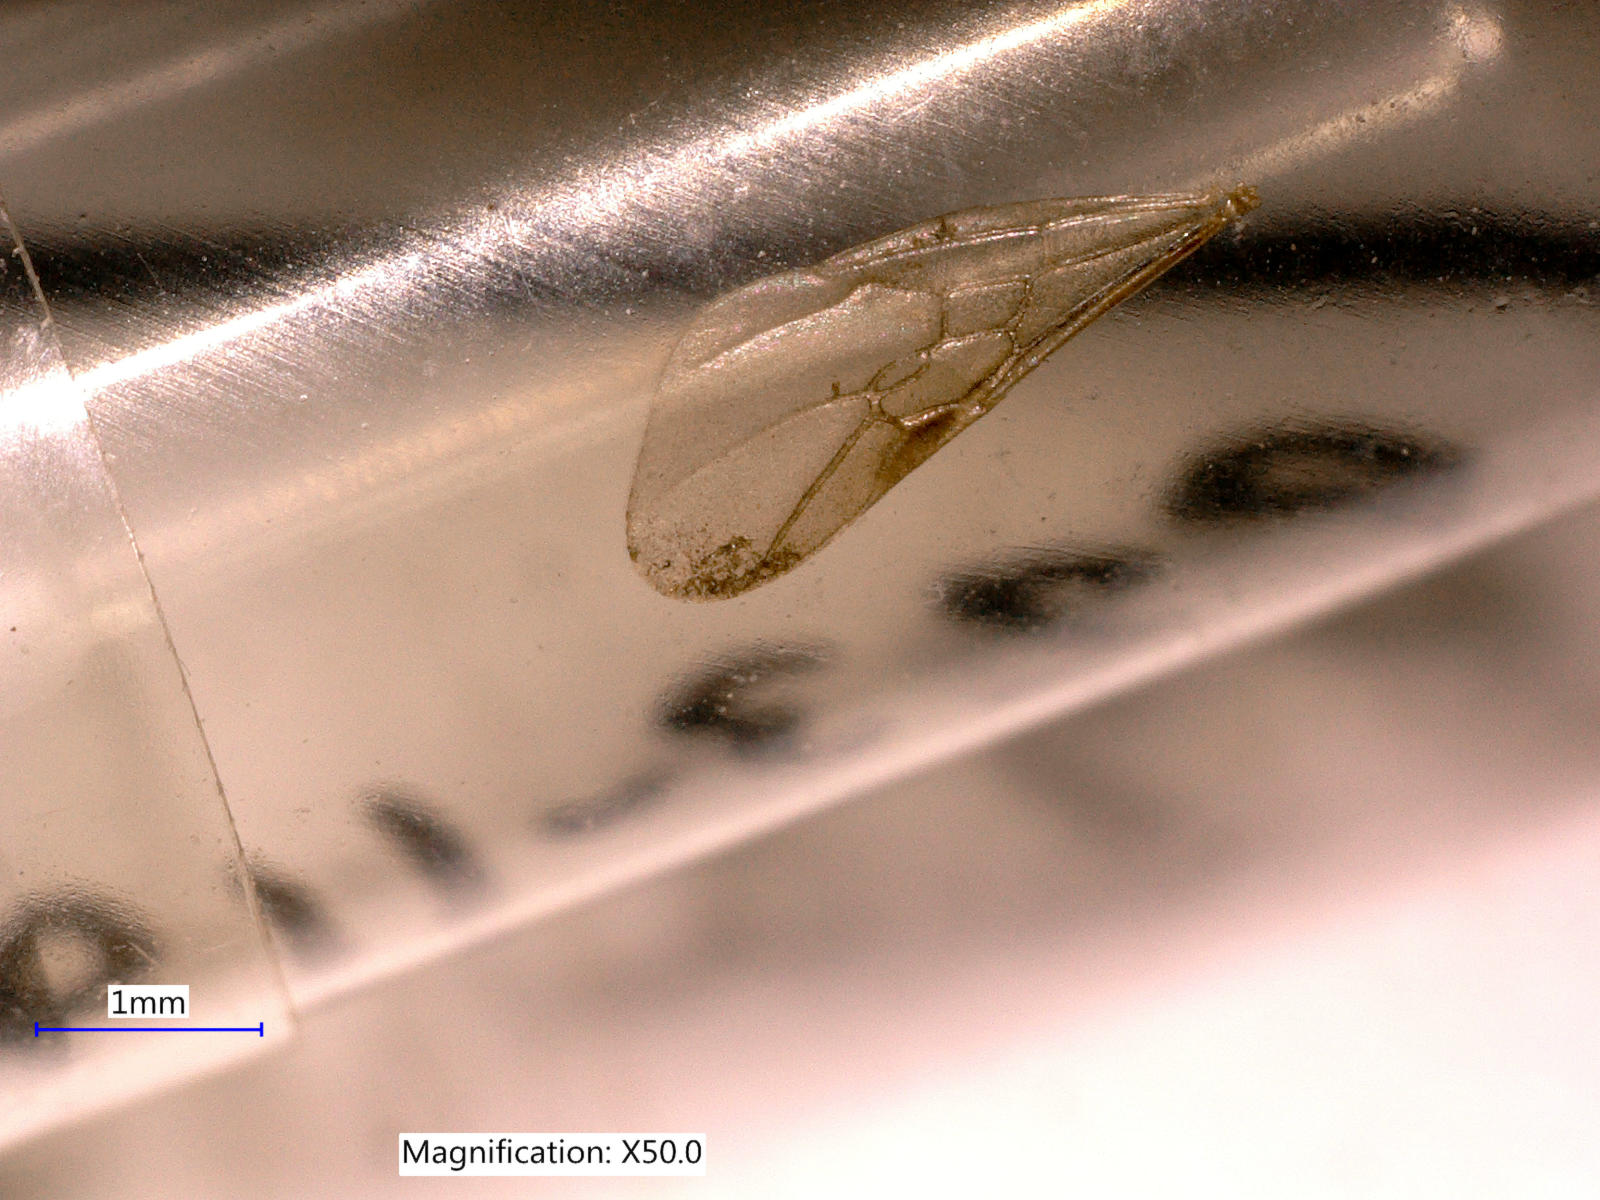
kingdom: Animalia
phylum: Arthropoda
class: Insecta
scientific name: Insecta
